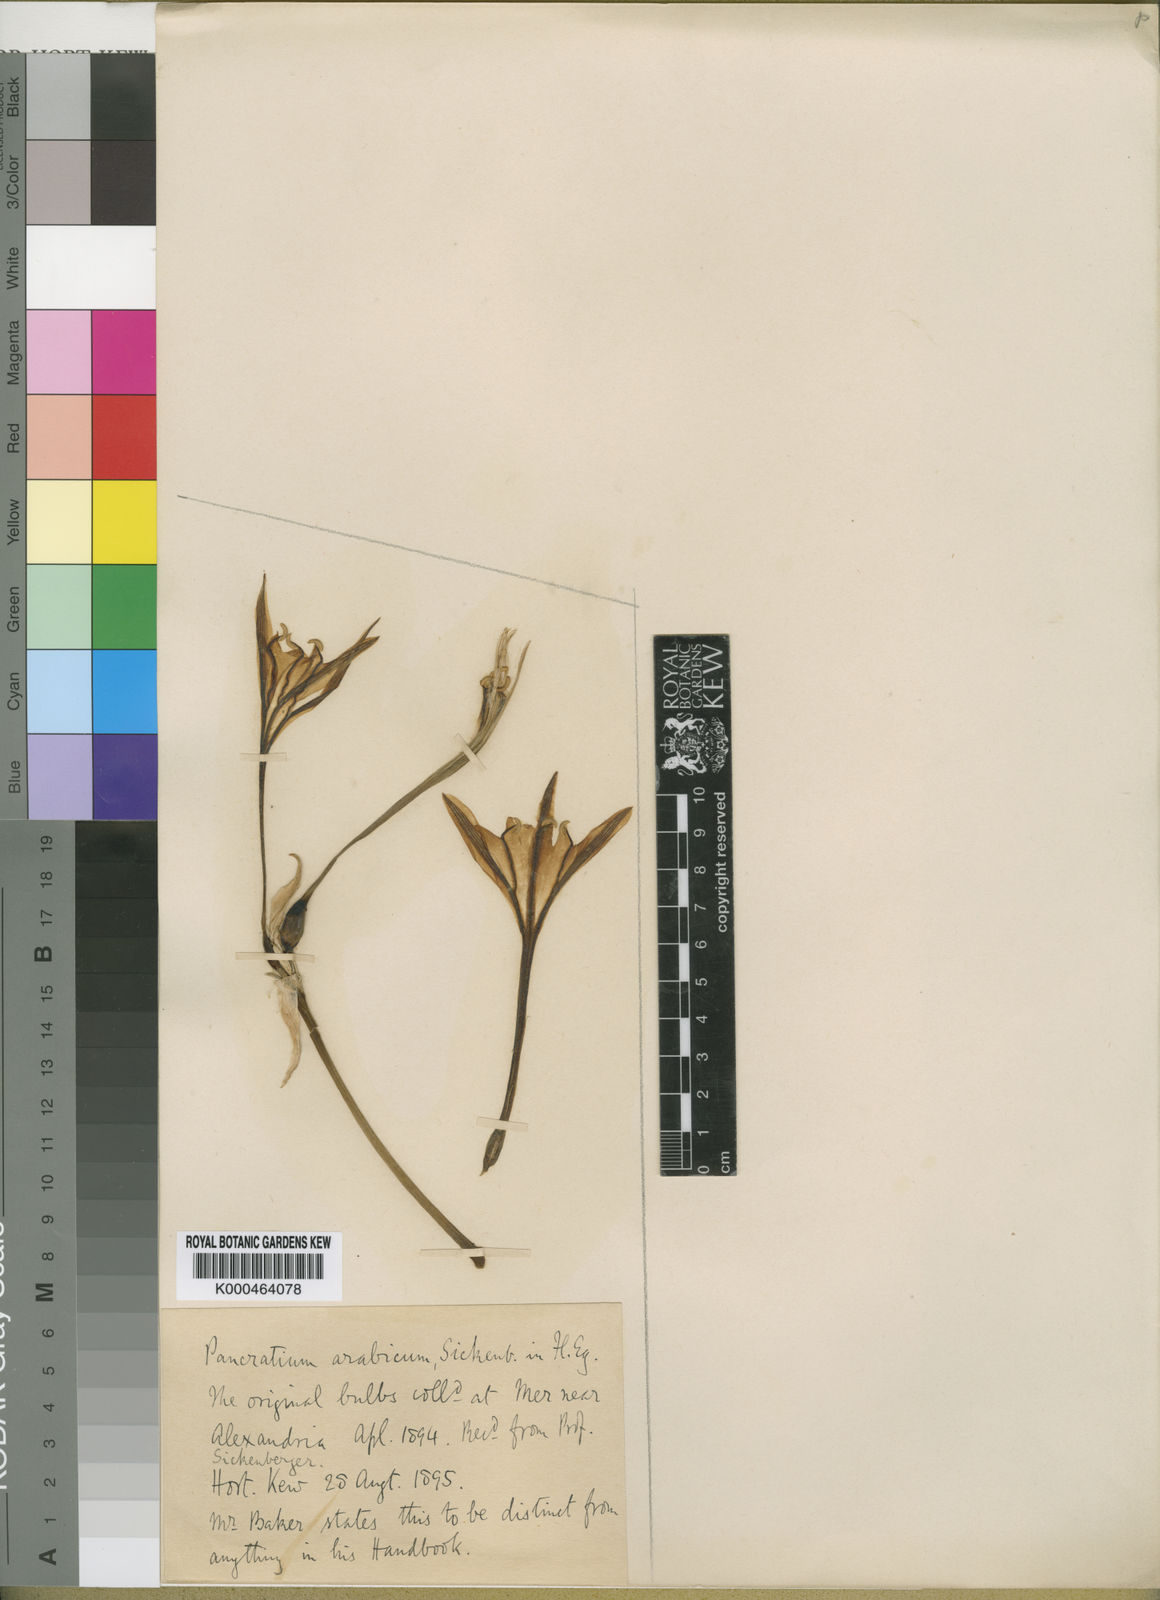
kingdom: Plantae
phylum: Tracheophyta
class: Liliopsida
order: Asparagales
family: Amaryllidaceae
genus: Pancratium
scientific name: Pancratium maritimum
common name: Sea-daffodil
